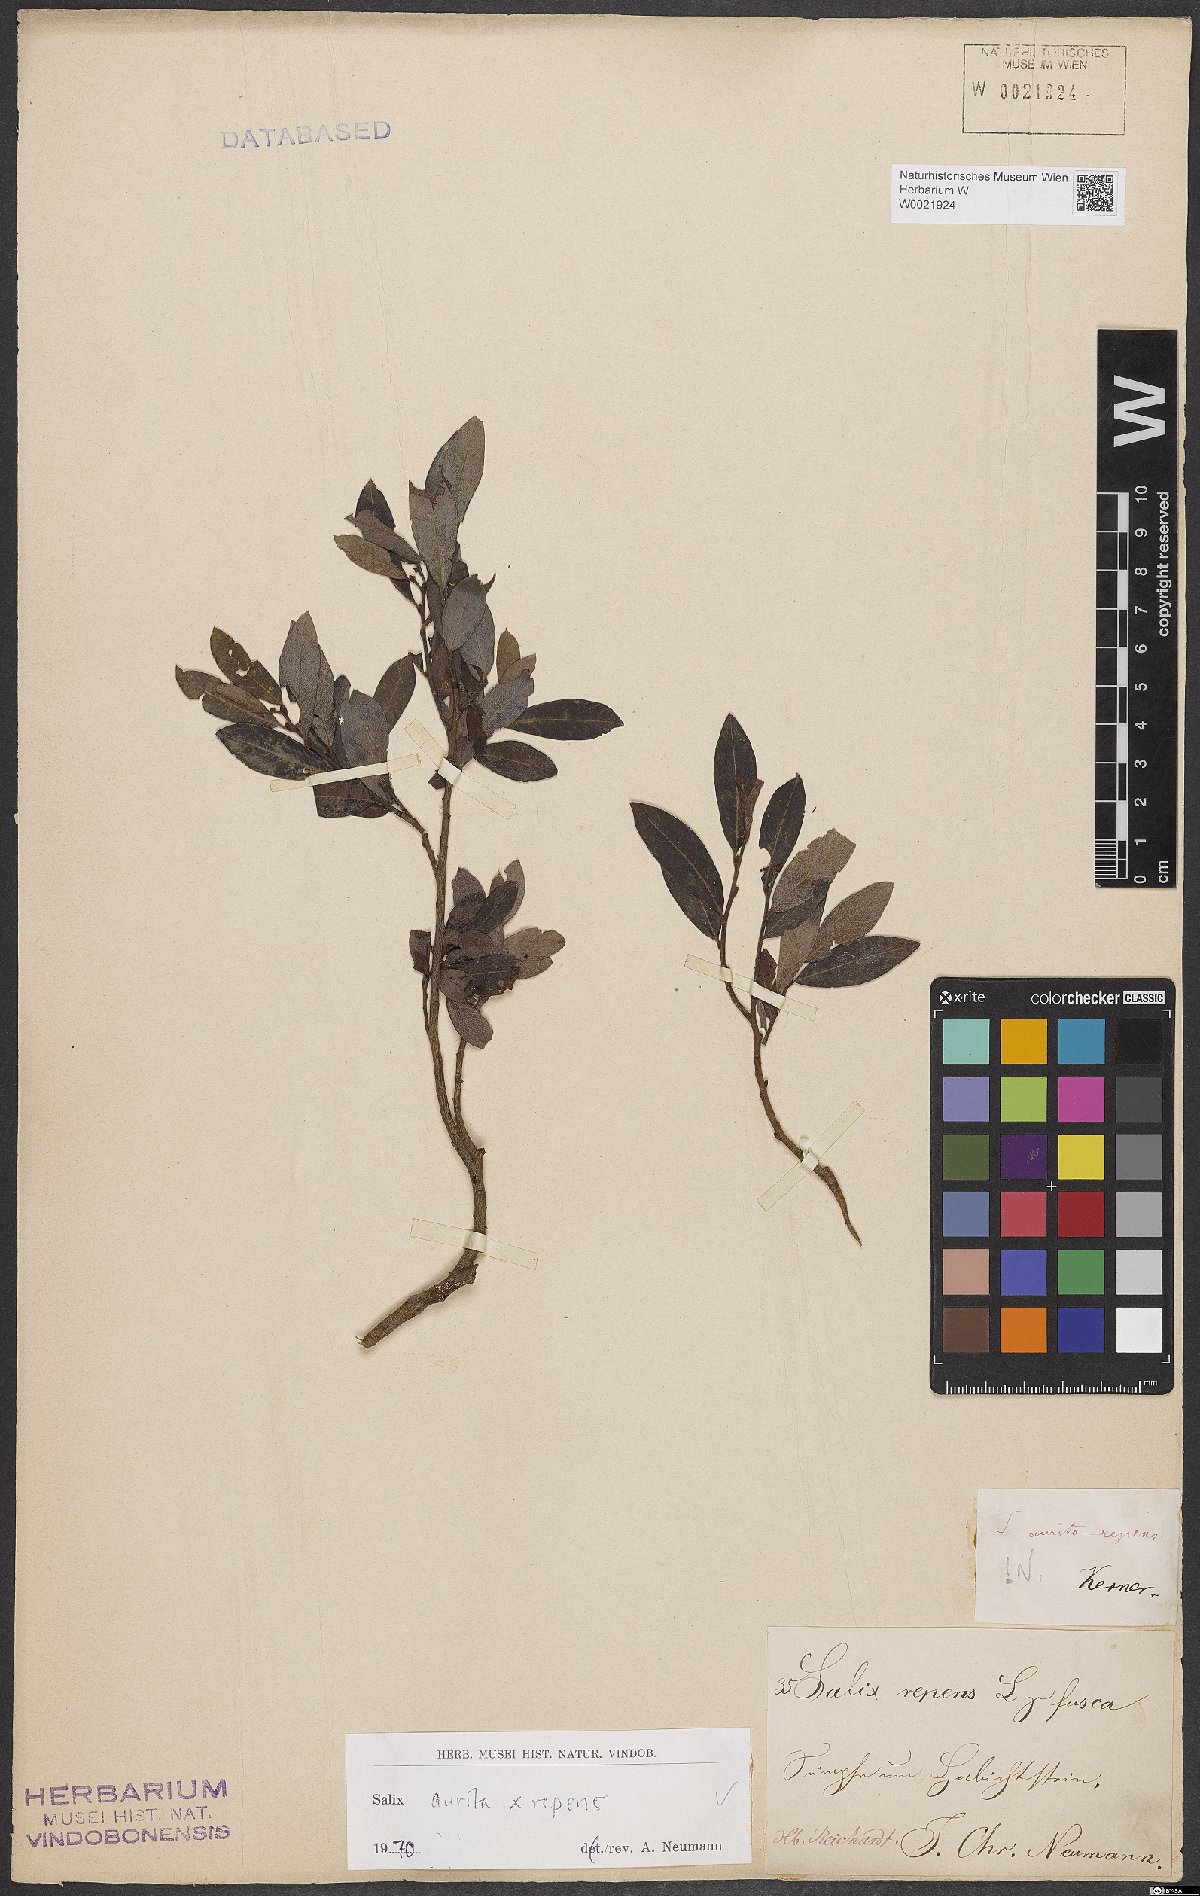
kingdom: Plantae
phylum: Tracheophyta
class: Magnoliopsida
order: Malpighiales
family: Salicaceae
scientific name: Salicaceae
